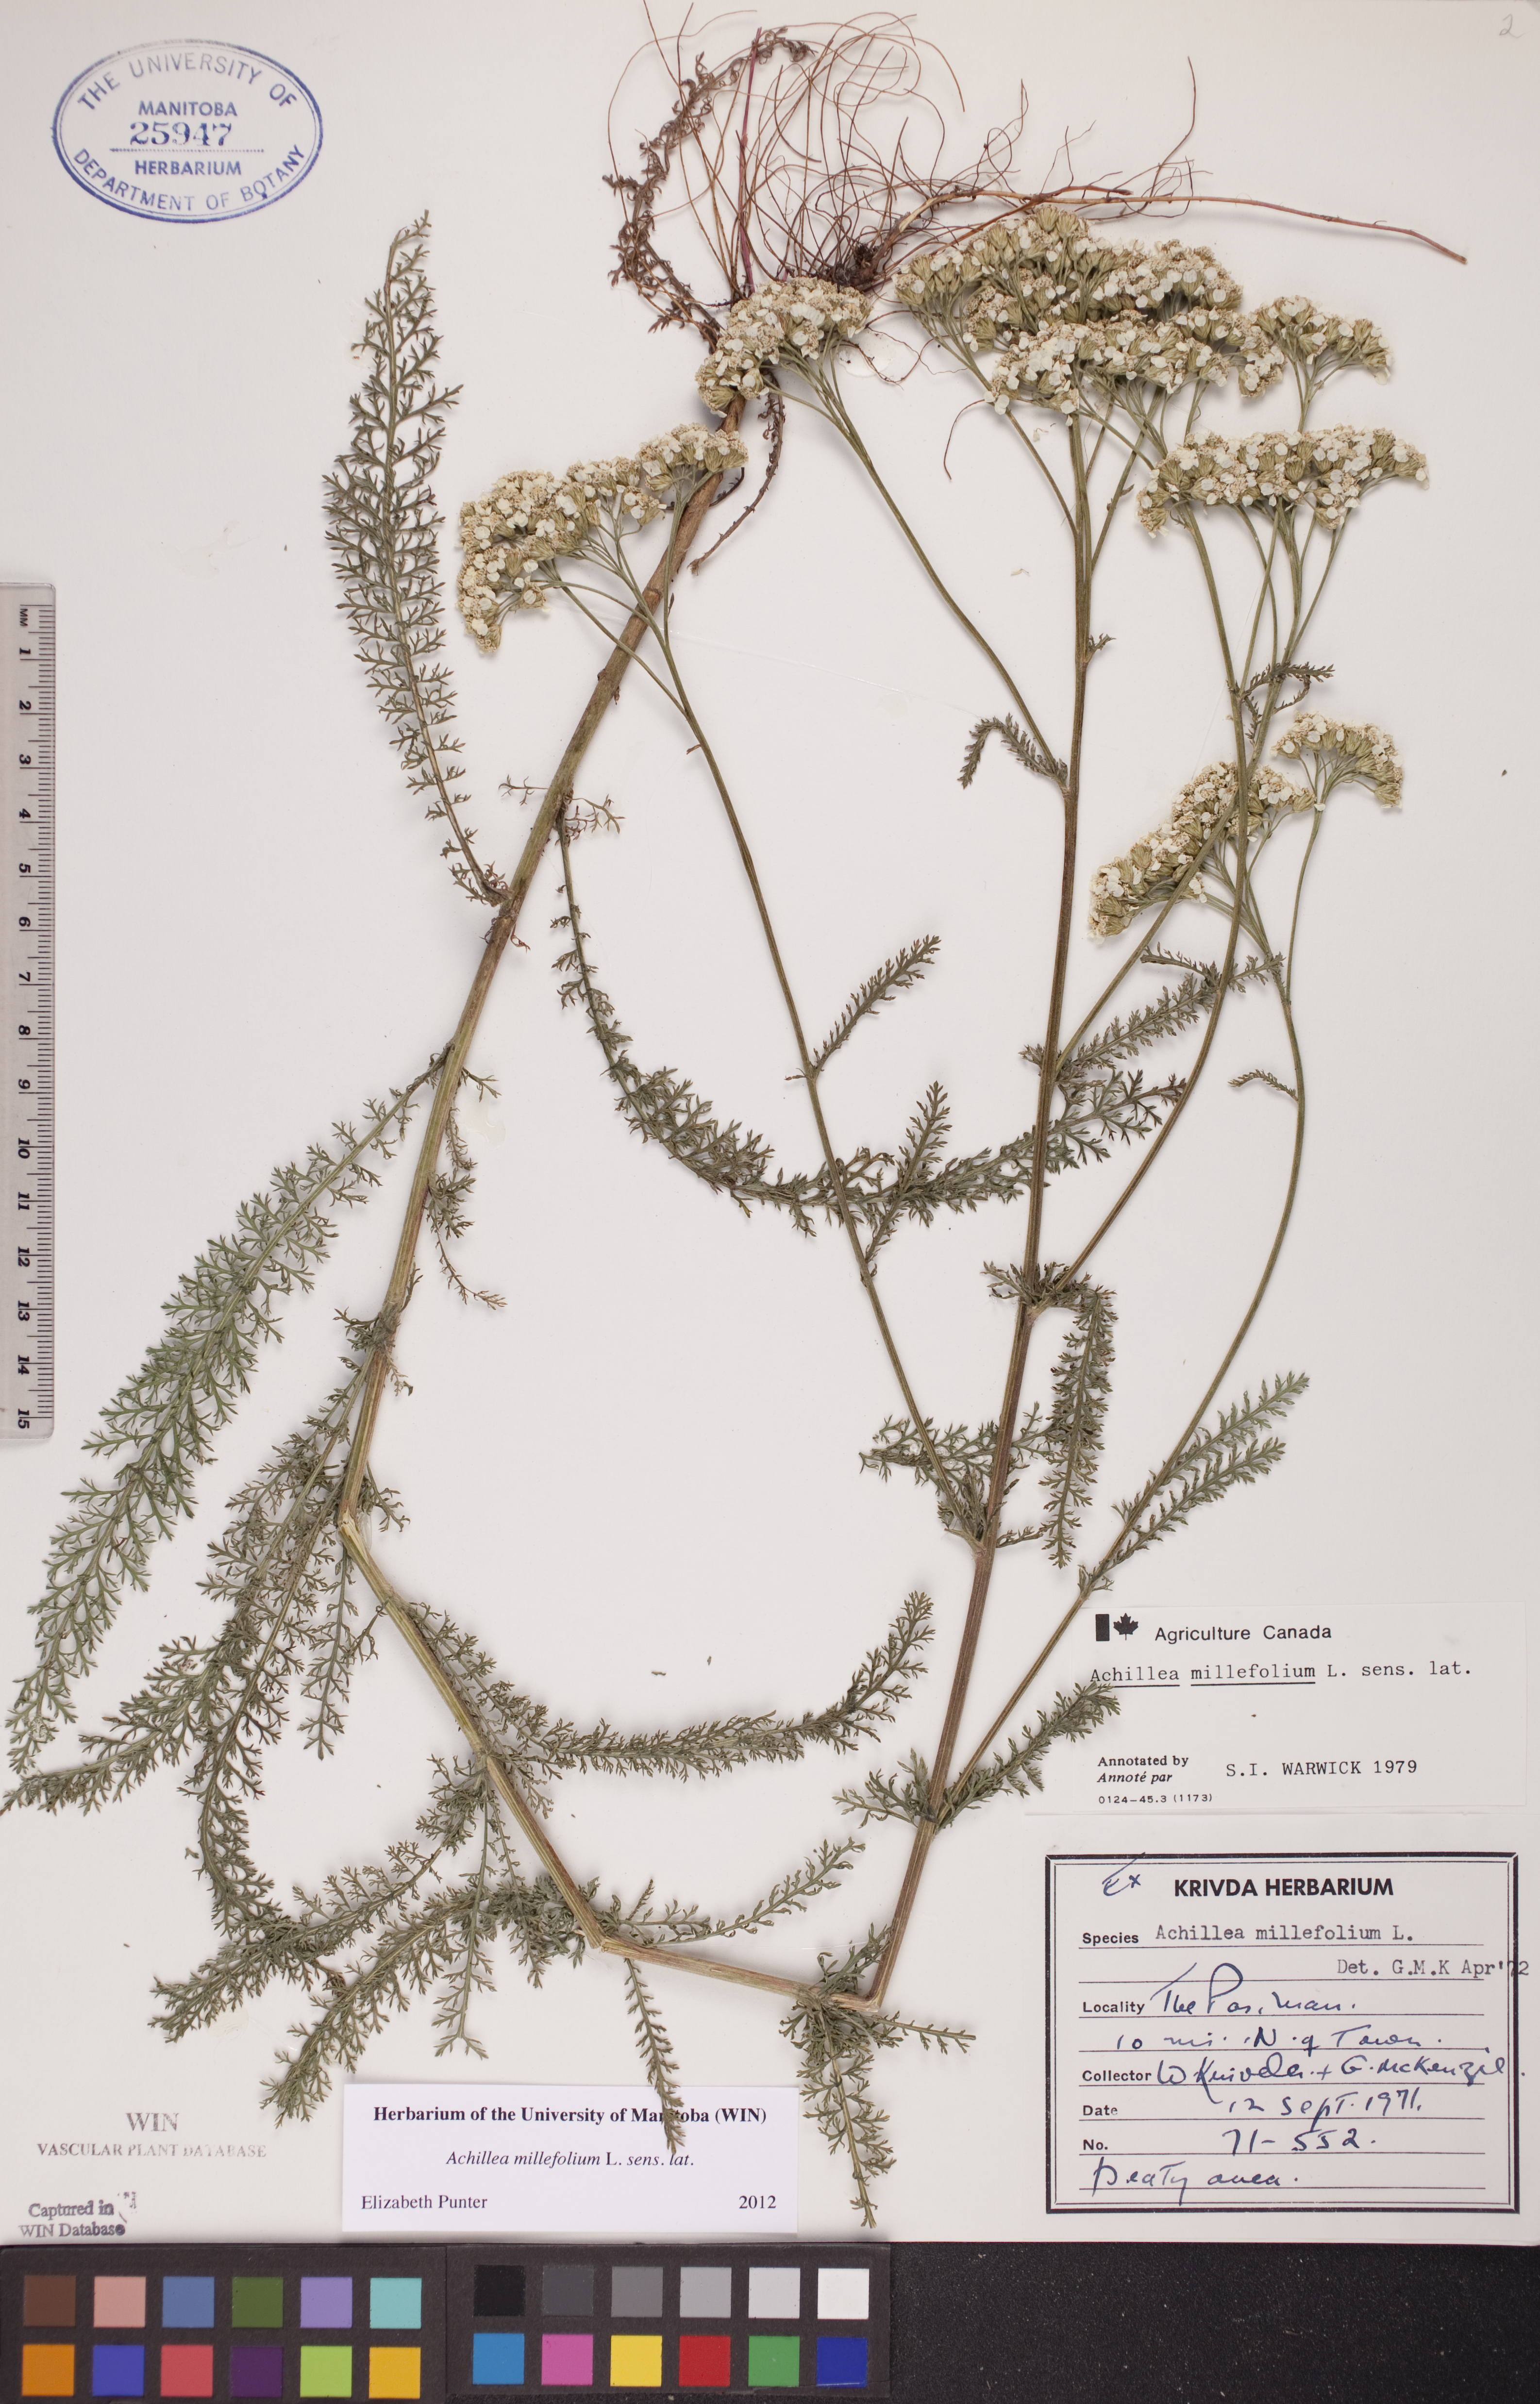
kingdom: Plantae
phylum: Tracheophyta
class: Magnoliopsida
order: Asterales
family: Asteraceae
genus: Achillea
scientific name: Achillea millefolium
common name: Yarrow
